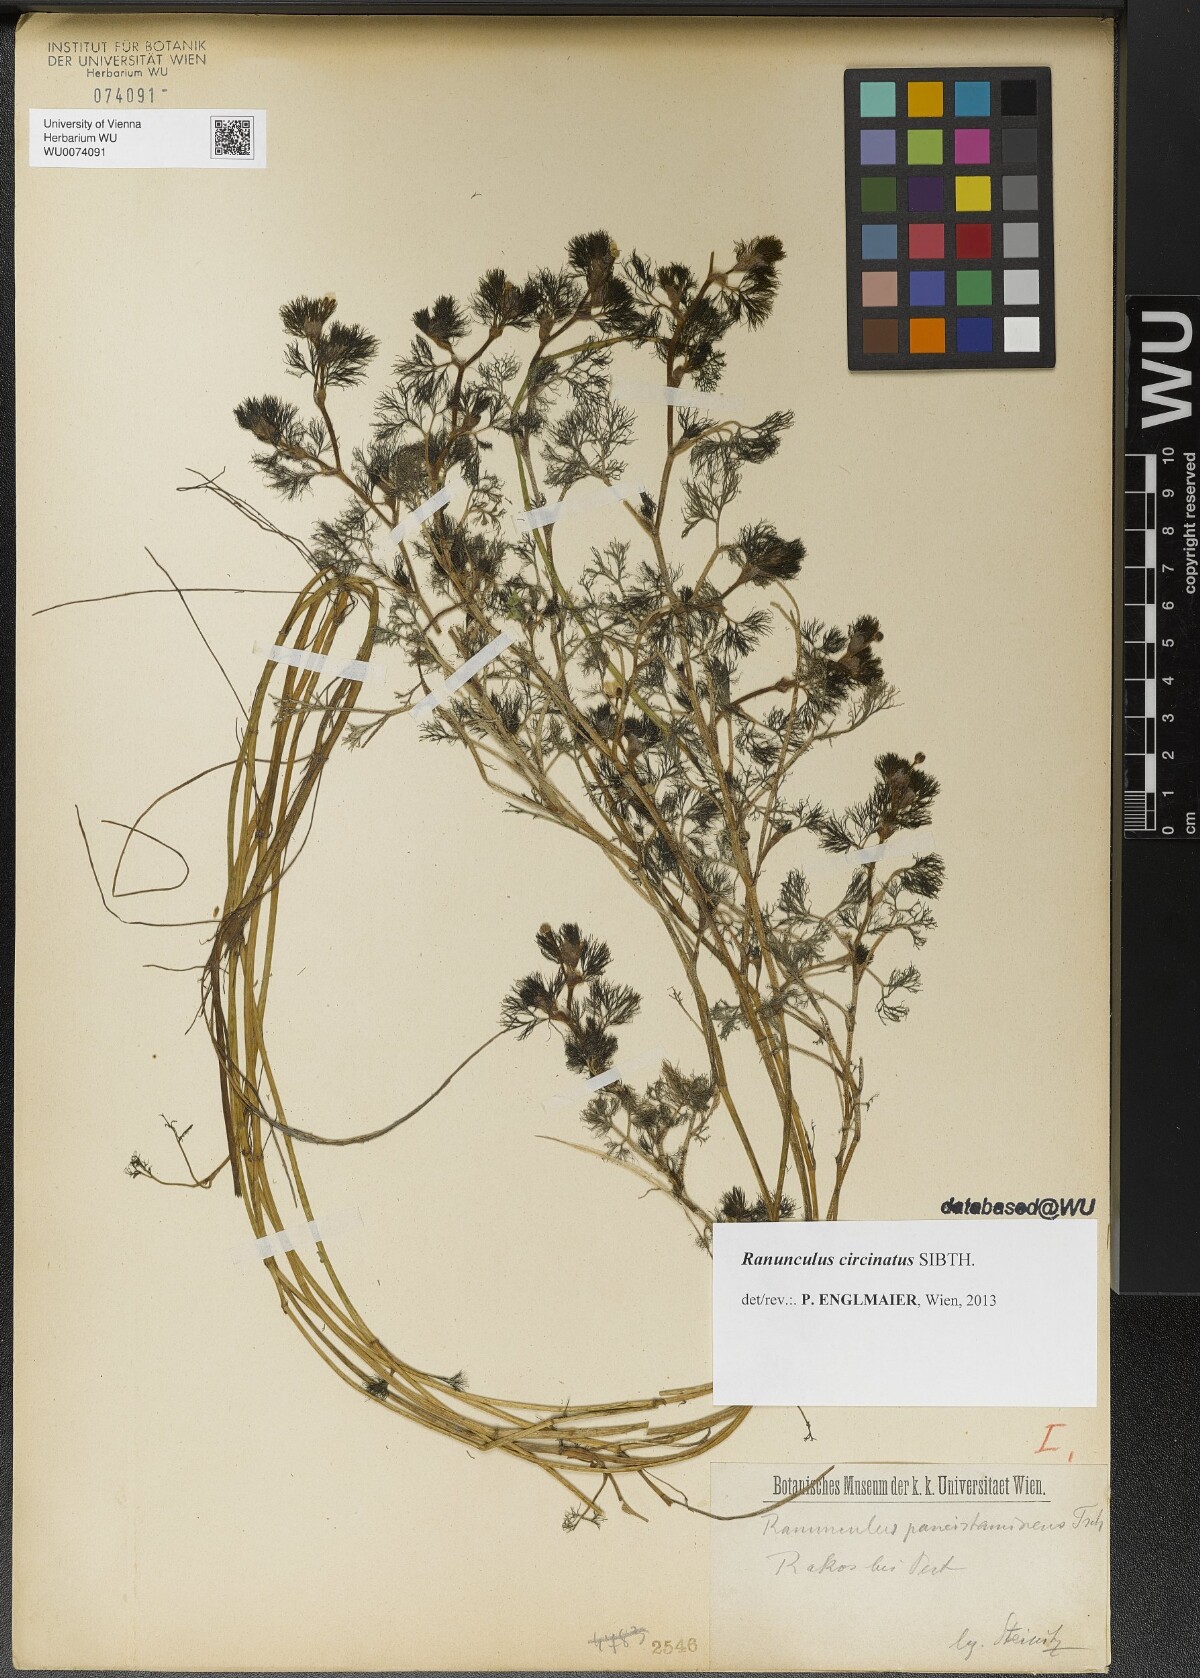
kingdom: Plantae
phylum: Tracheophyta
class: Magnoliopsida
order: Ranunculales
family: Ranunculaceae
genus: Ranunculus
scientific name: Ranunculus circinatus
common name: Fan-leaved water-crowfoot
